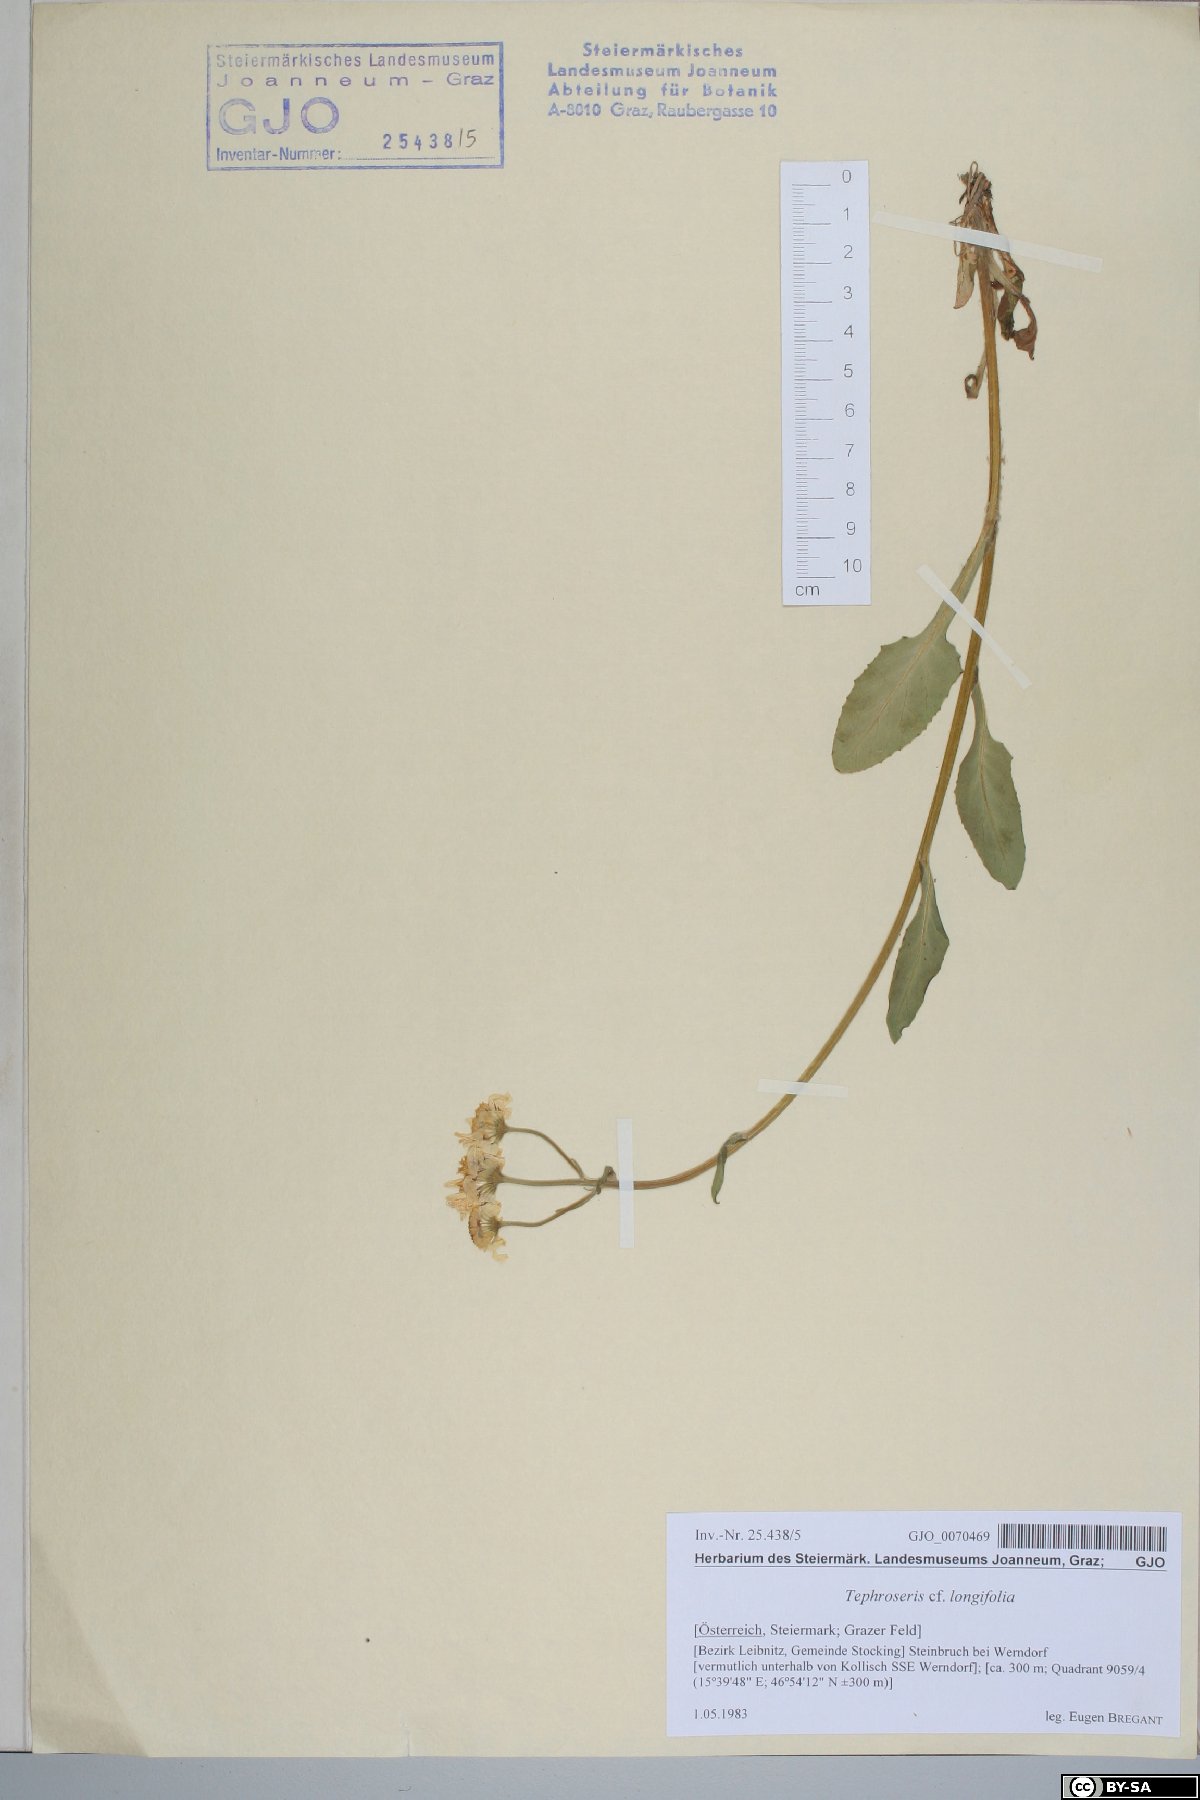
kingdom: Plantae
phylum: Tracheophyta
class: Magnoliopsida
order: Asterales
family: Asteraceae
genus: Tephroseris
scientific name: Tephroseris longifolia
